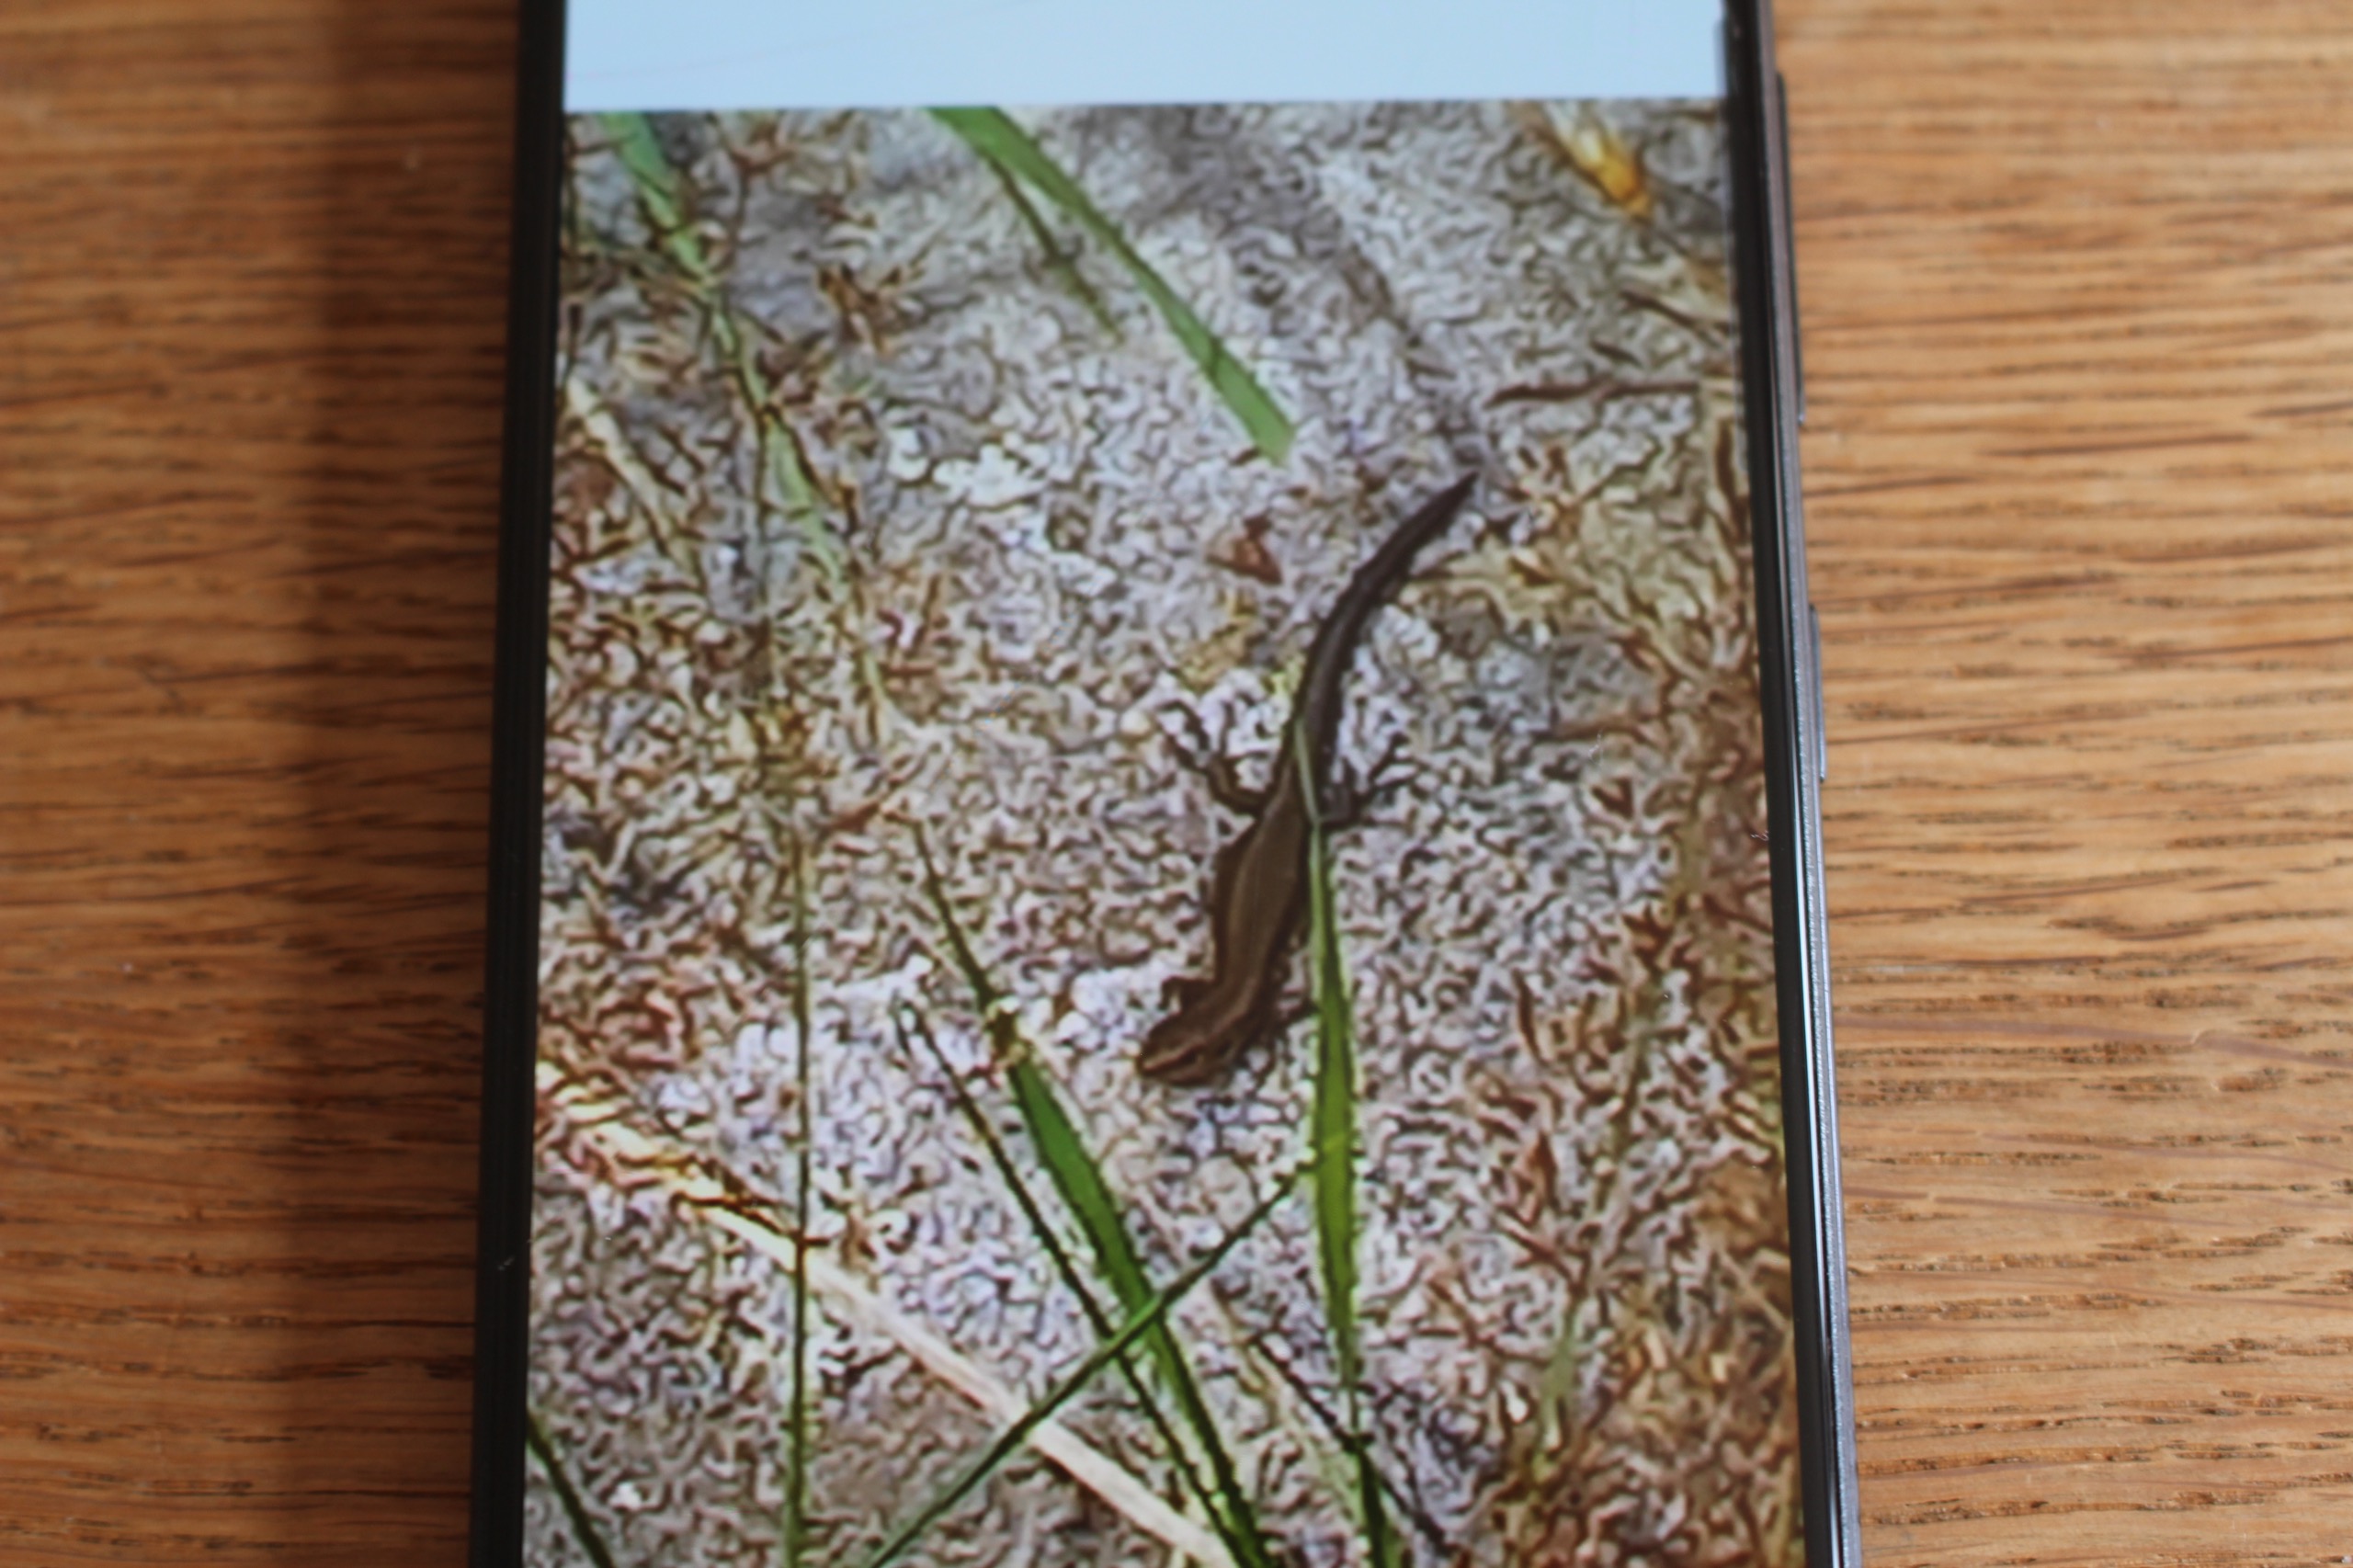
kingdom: Animalia
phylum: Chordata
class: Squamata
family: Lacertidae
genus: Zootoca
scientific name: Zootoca vivipara
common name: Skovfirben
